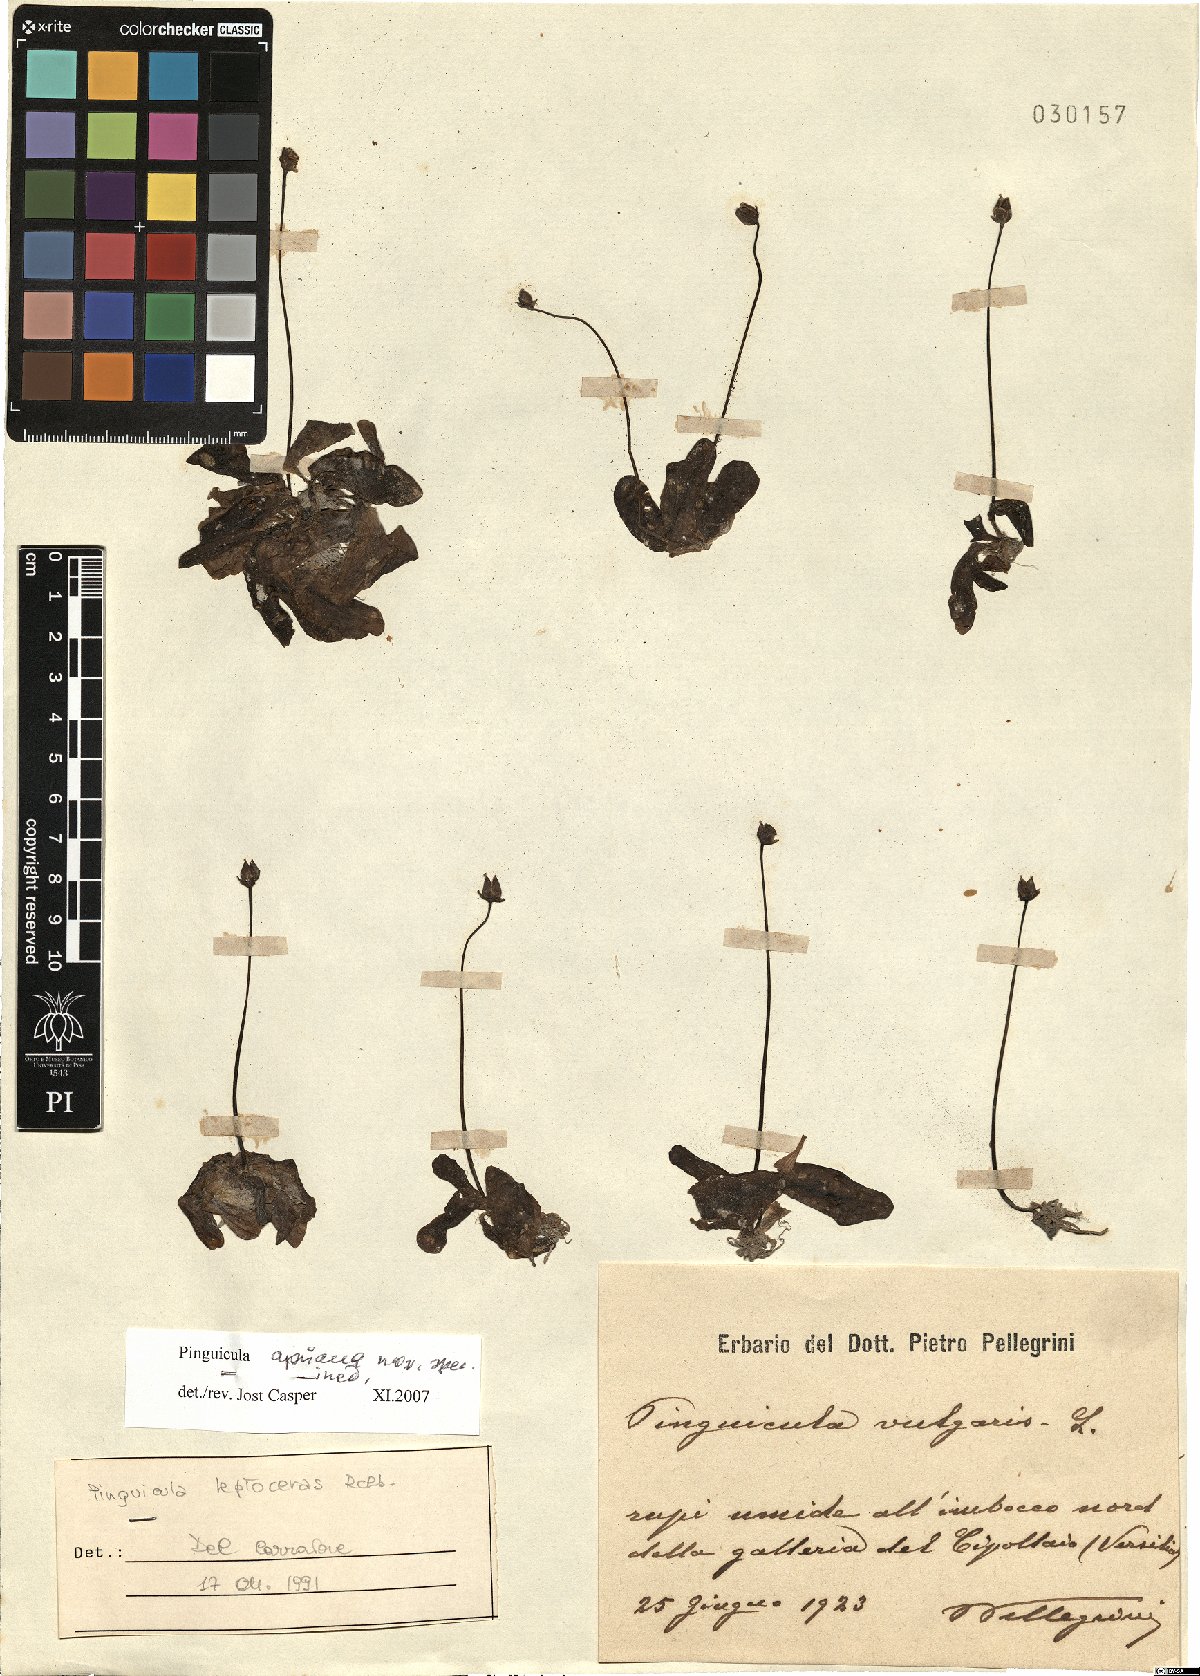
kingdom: Plantae
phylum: Tracheophyta
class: Magnoliopsida
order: Lamiales
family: Lentibulariaceae
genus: Pinguicula
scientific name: Pinguicula apuana
